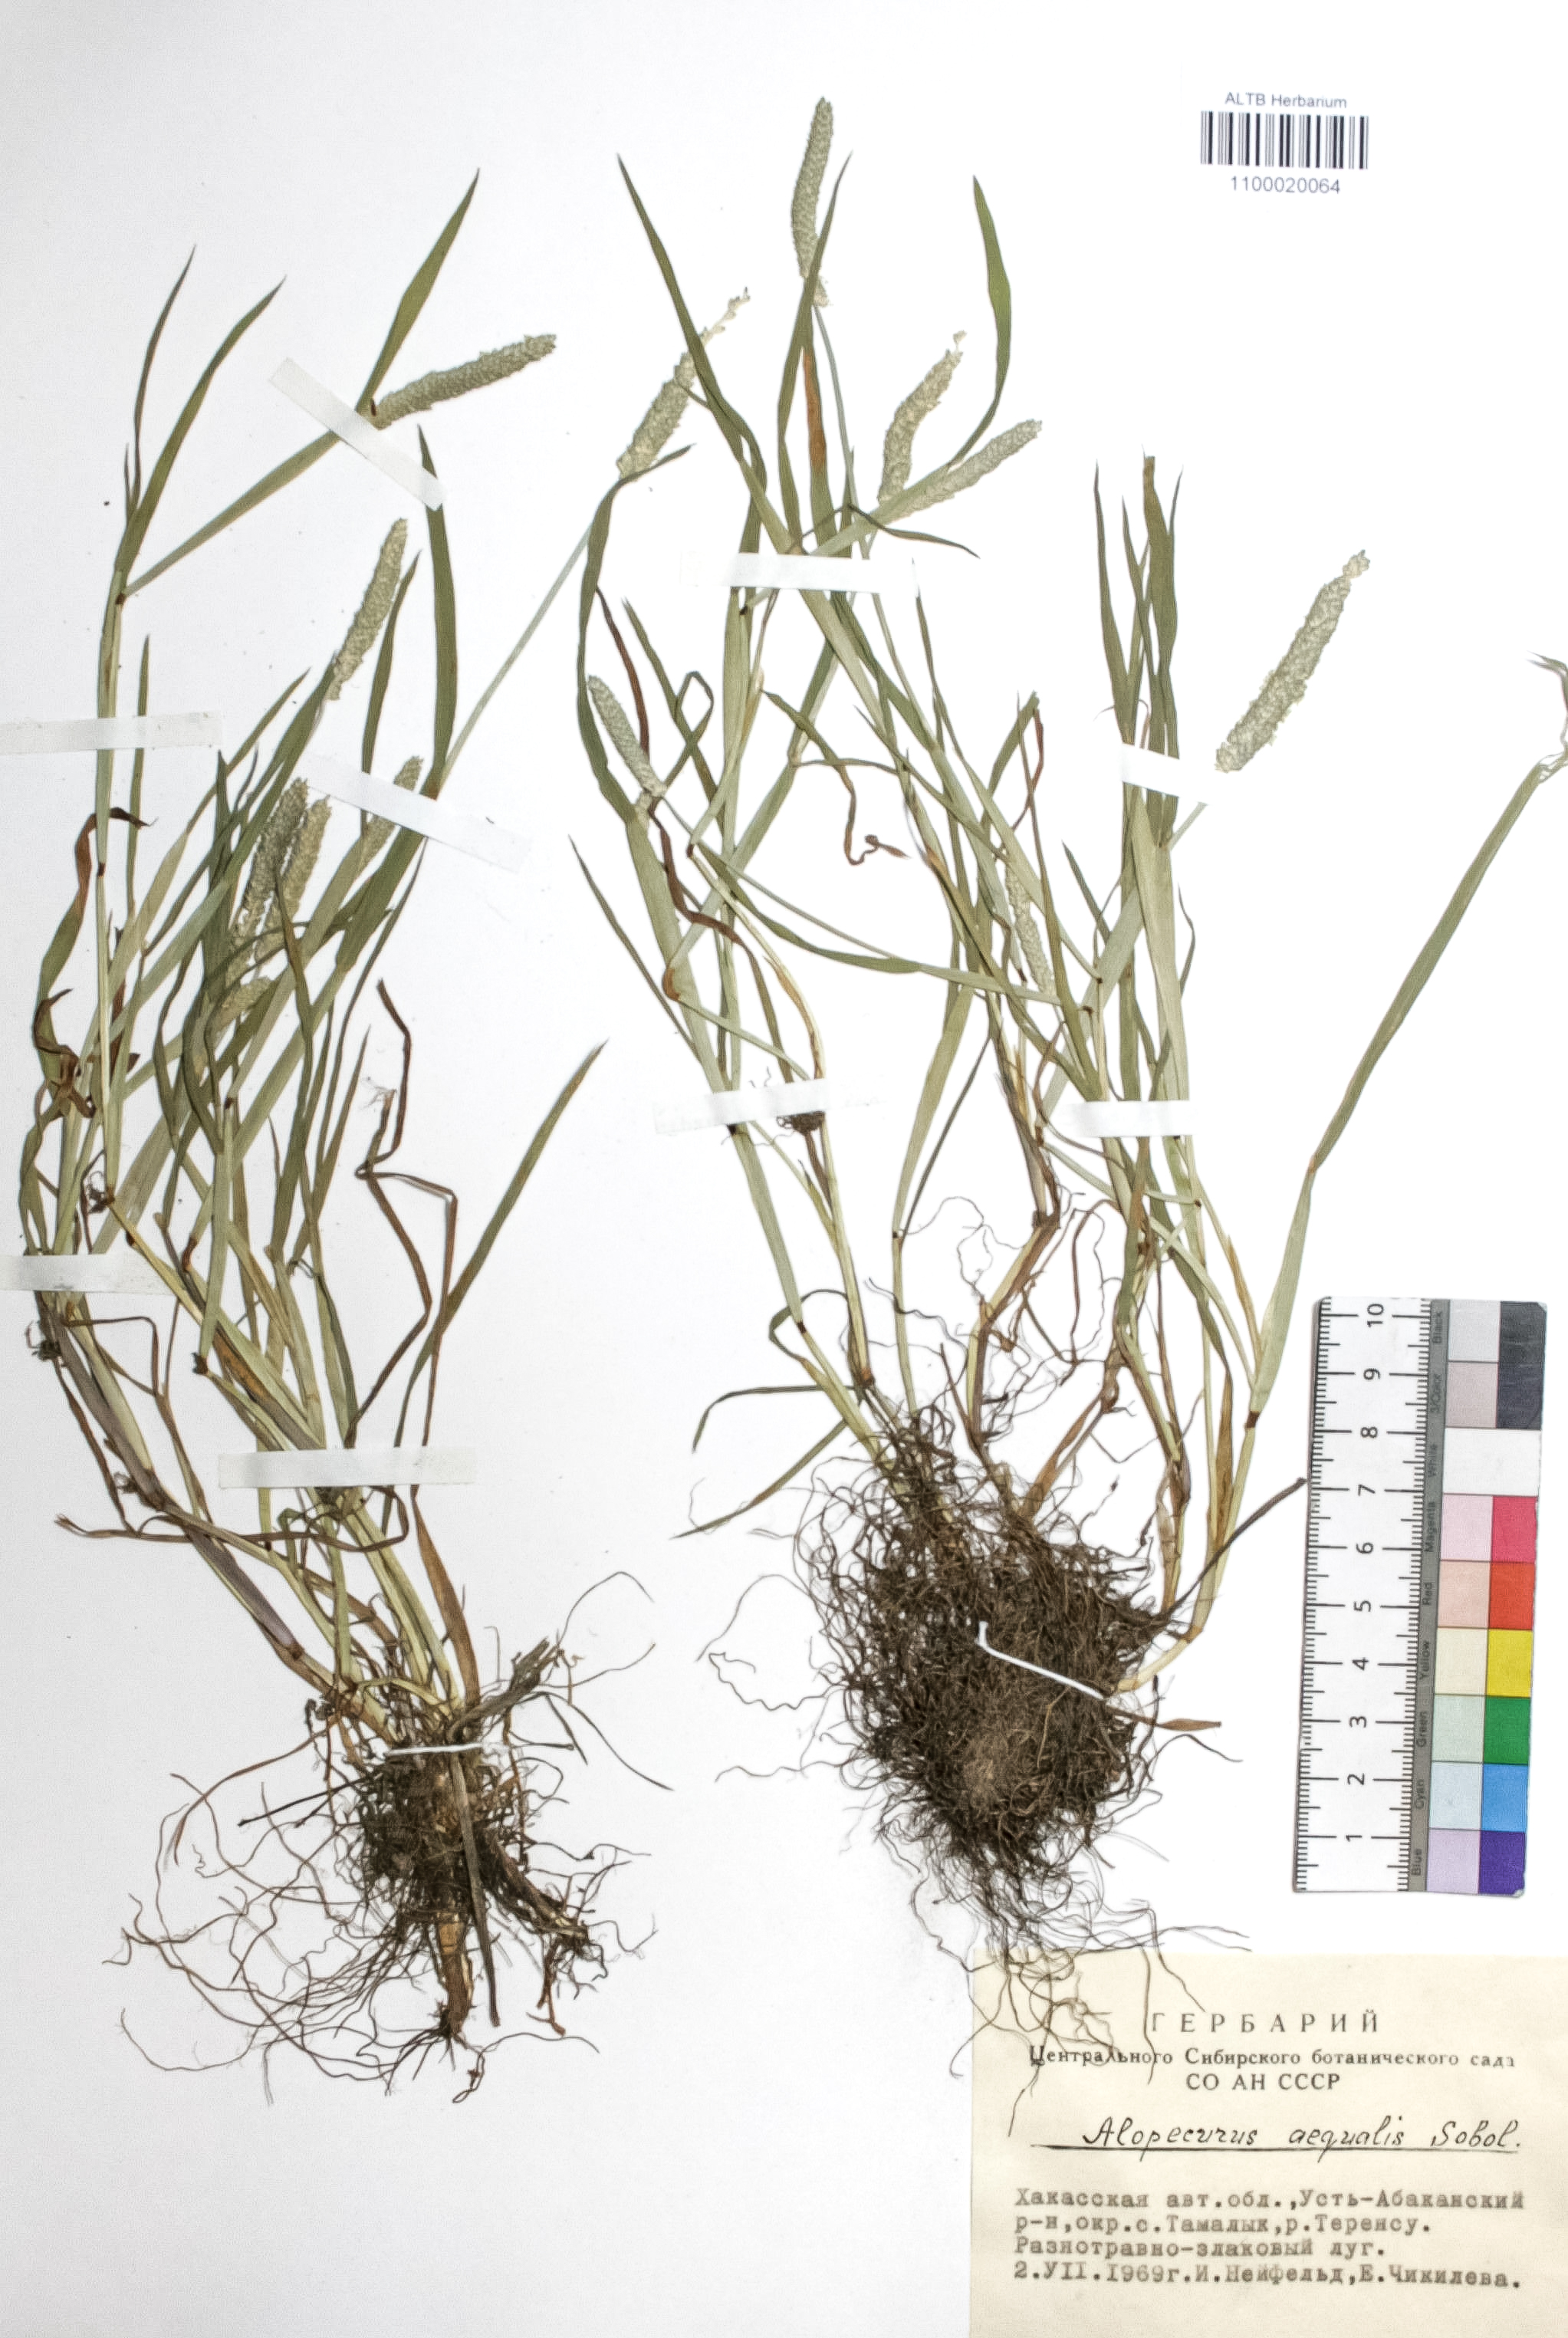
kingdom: Plantae
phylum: Tracheophyta
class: Liliopsida
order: Poales
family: Poaceae
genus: Alopecurus
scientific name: Alopecurus aequalis
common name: Orange foxtail
